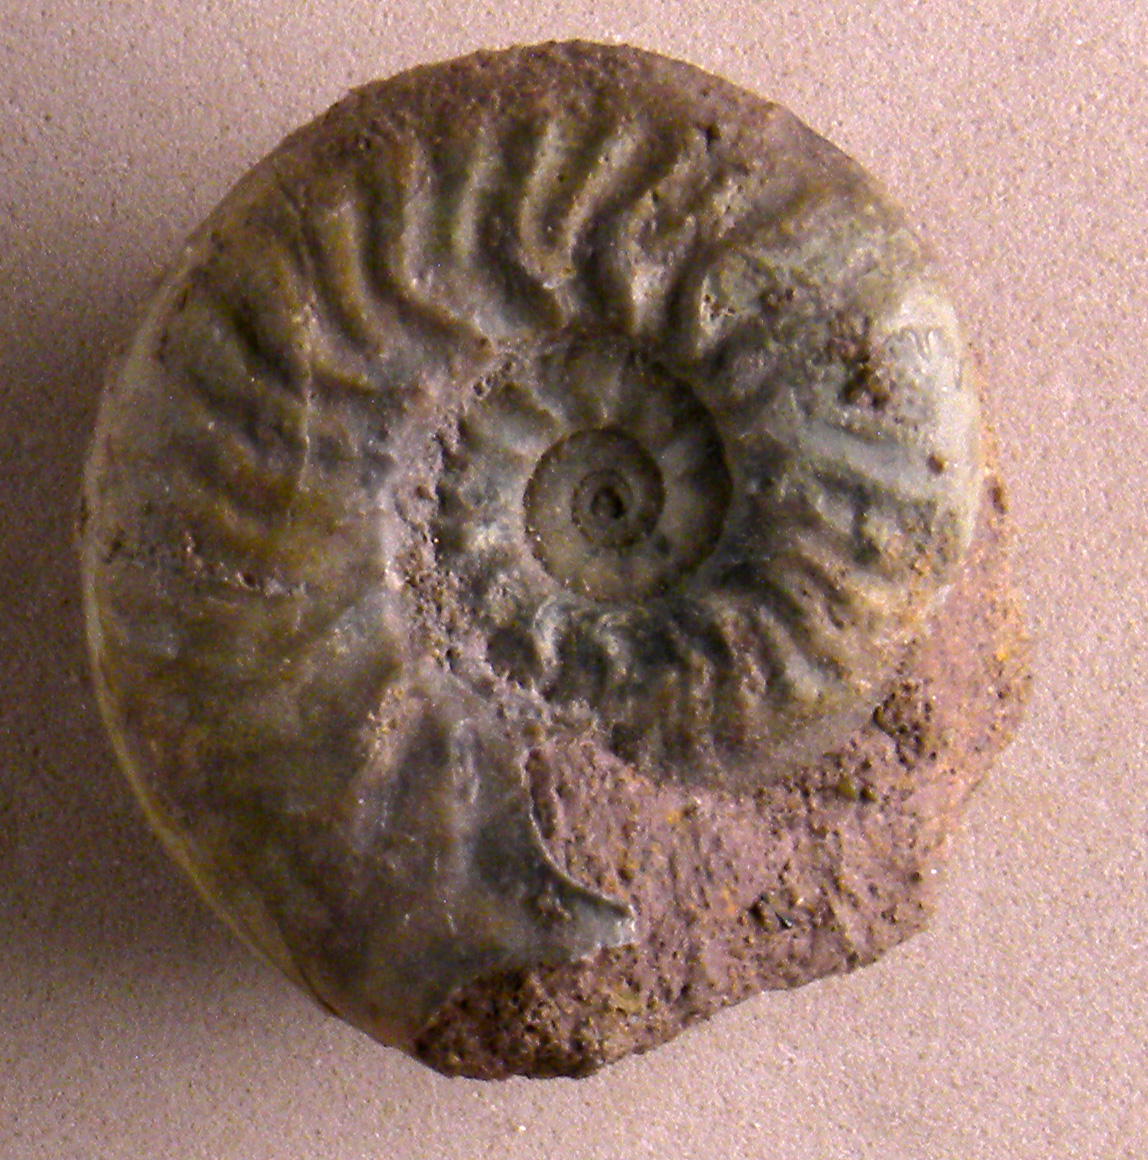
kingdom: Animalia
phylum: Mollusca
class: Cephalopoda
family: Graphoceratidae
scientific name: Graphoceratidae
